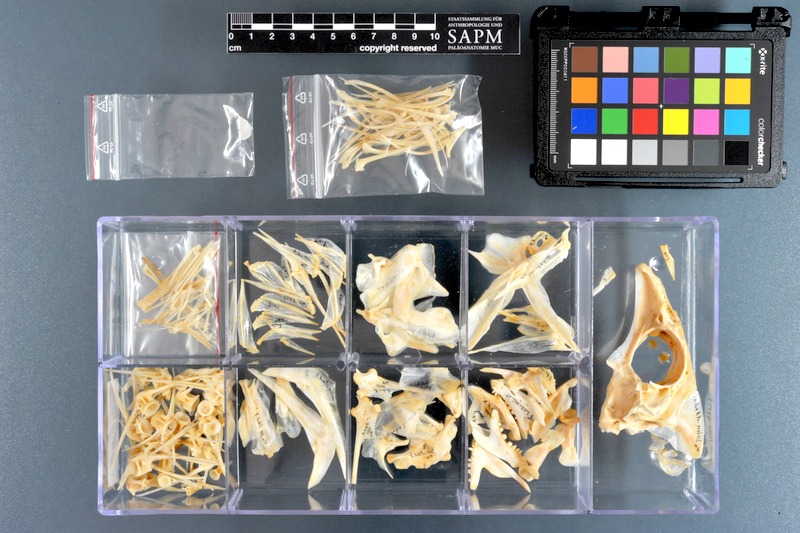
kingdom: Animalia
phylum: Chordata
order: Perciformes
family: Lethrinidae
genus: Lethrinus
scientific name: Lethrinus miniatus
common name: Trumpet emperor
